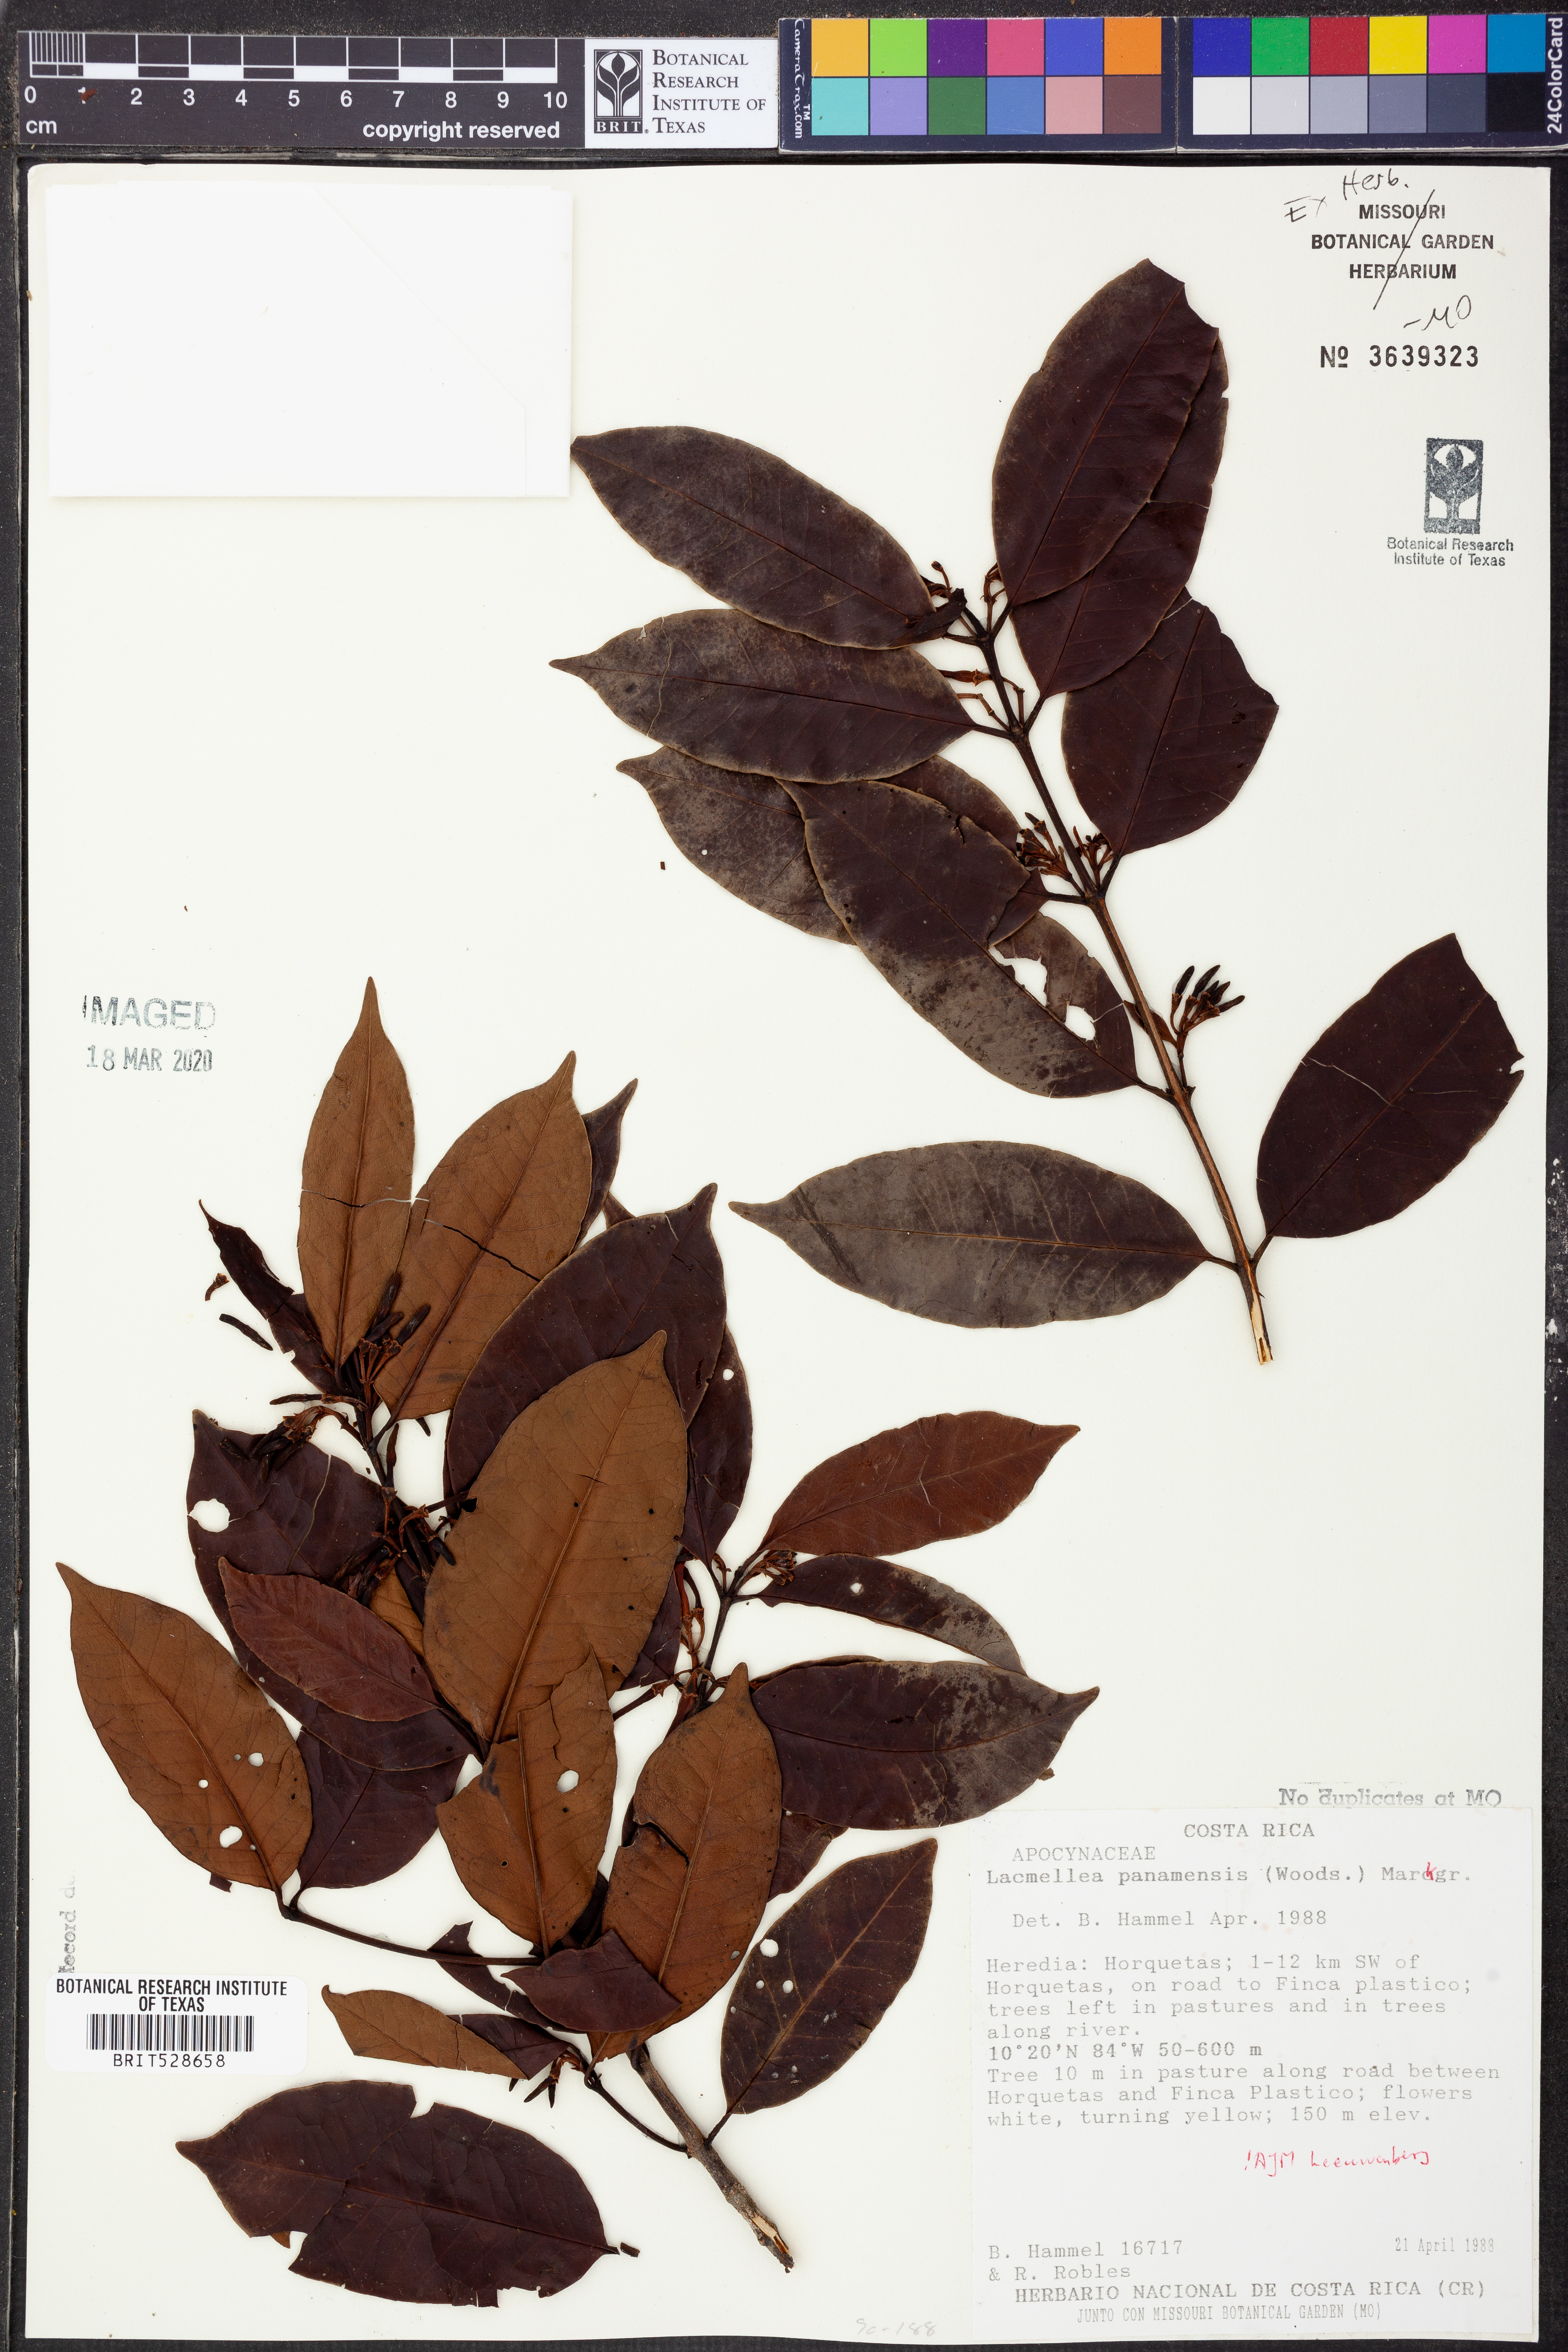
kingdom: Plantae
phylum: Tracheophyta
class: Magnoliopsida
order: Gentianales
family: Apocynaceae
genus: Lacmellea
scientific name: Lacmellea panamensis
